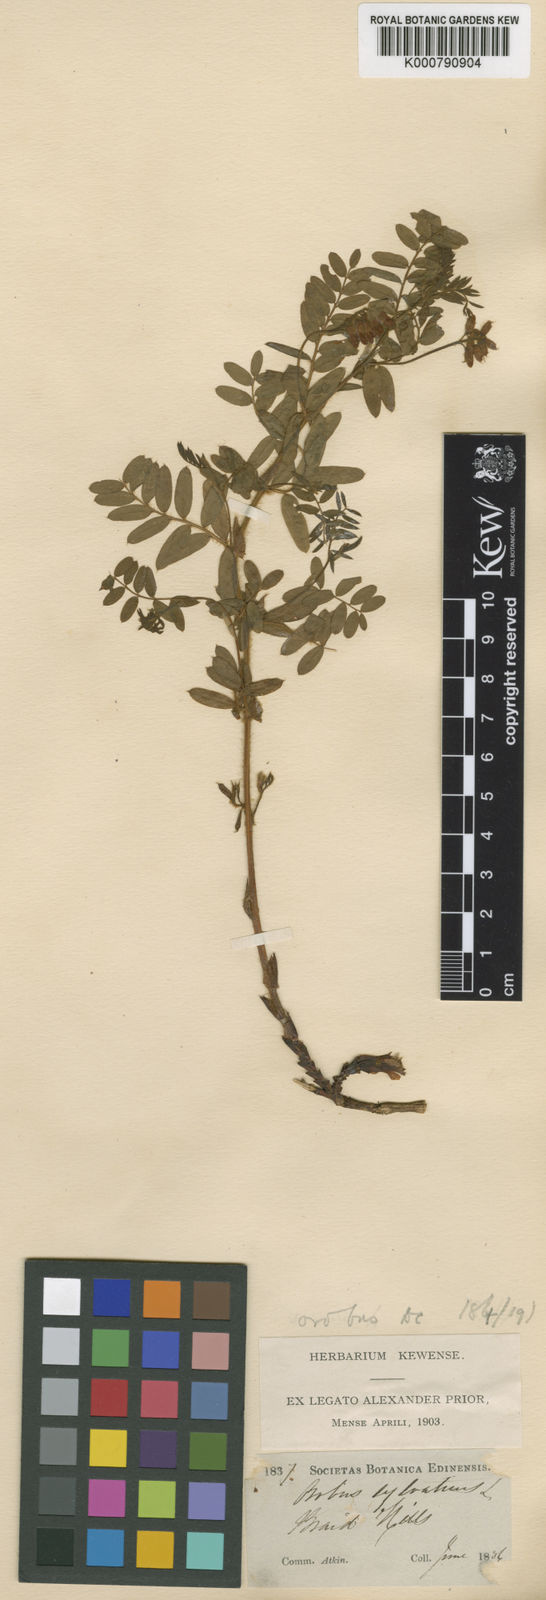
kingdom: Plantae
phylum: Tracheophyta
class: Magnoliopsida
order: Fabales
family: Fabaceae
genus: Vicia
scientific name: Vicia orobus
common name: Wood bitter-vetch
